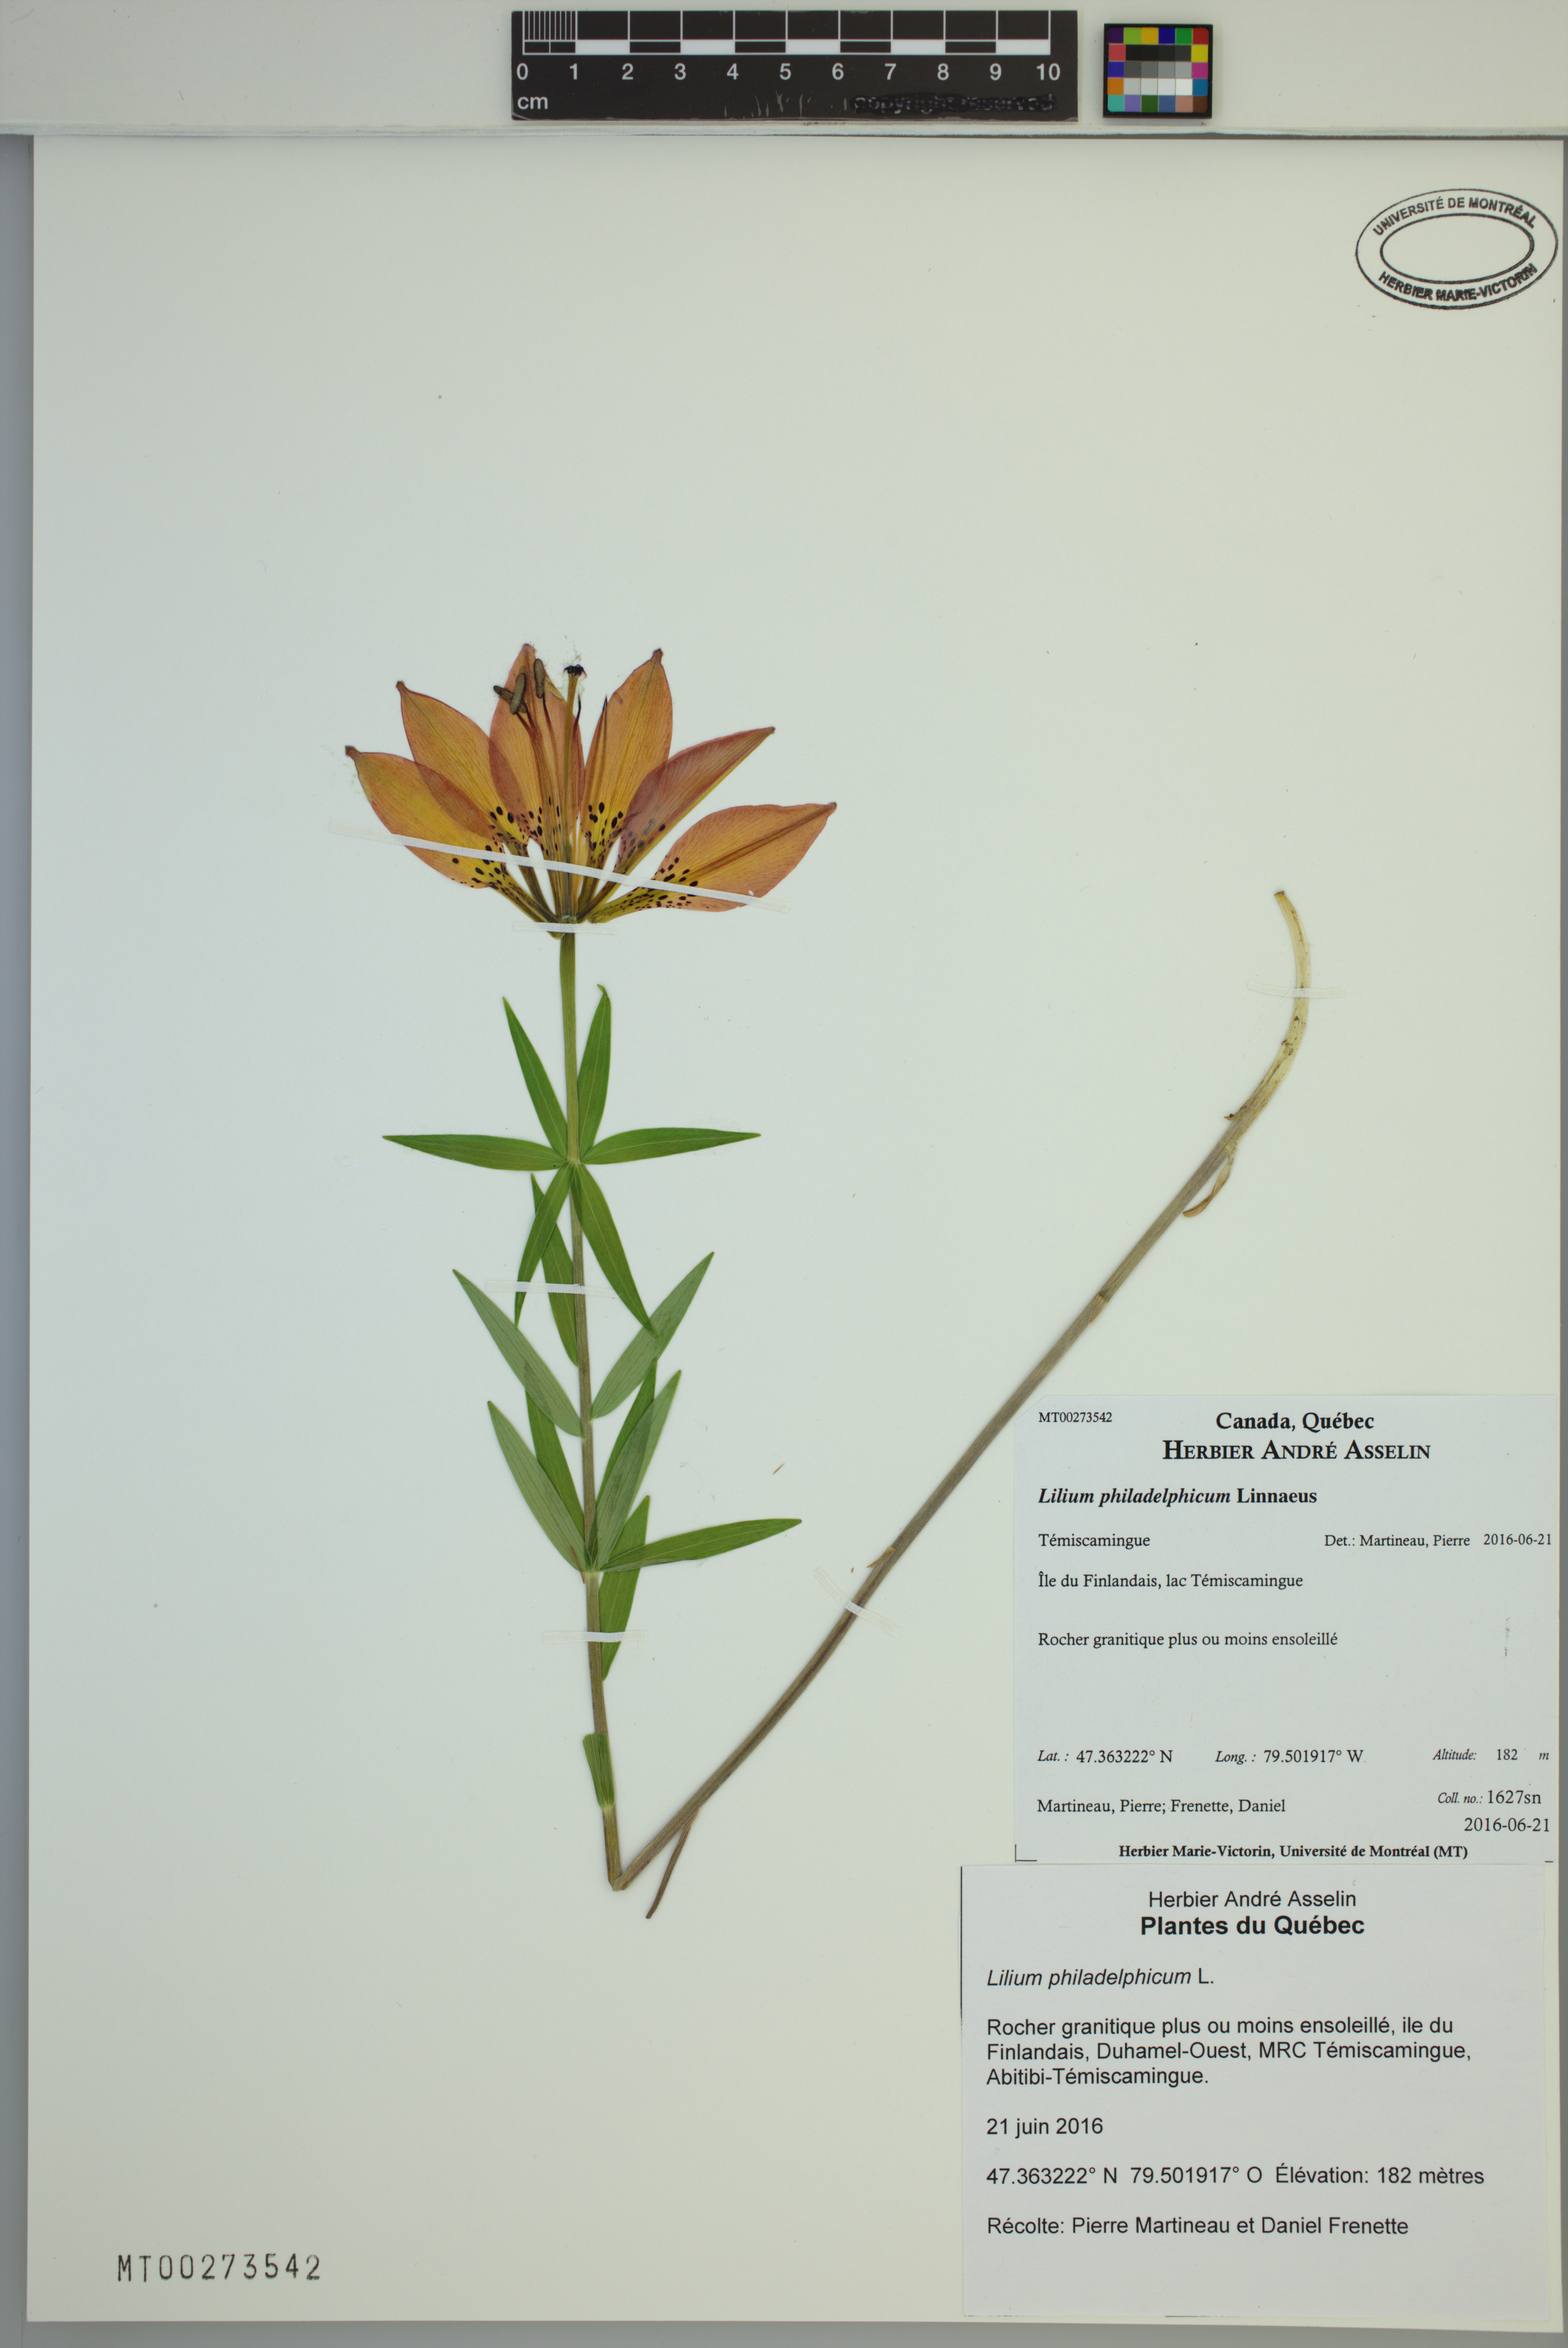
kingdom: Plantae
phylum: Tracheophyta
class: Liliopsida
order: Liliales
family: Liliaceae
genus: Lilium
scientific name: Lilium philadelphicum
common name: Red lily
